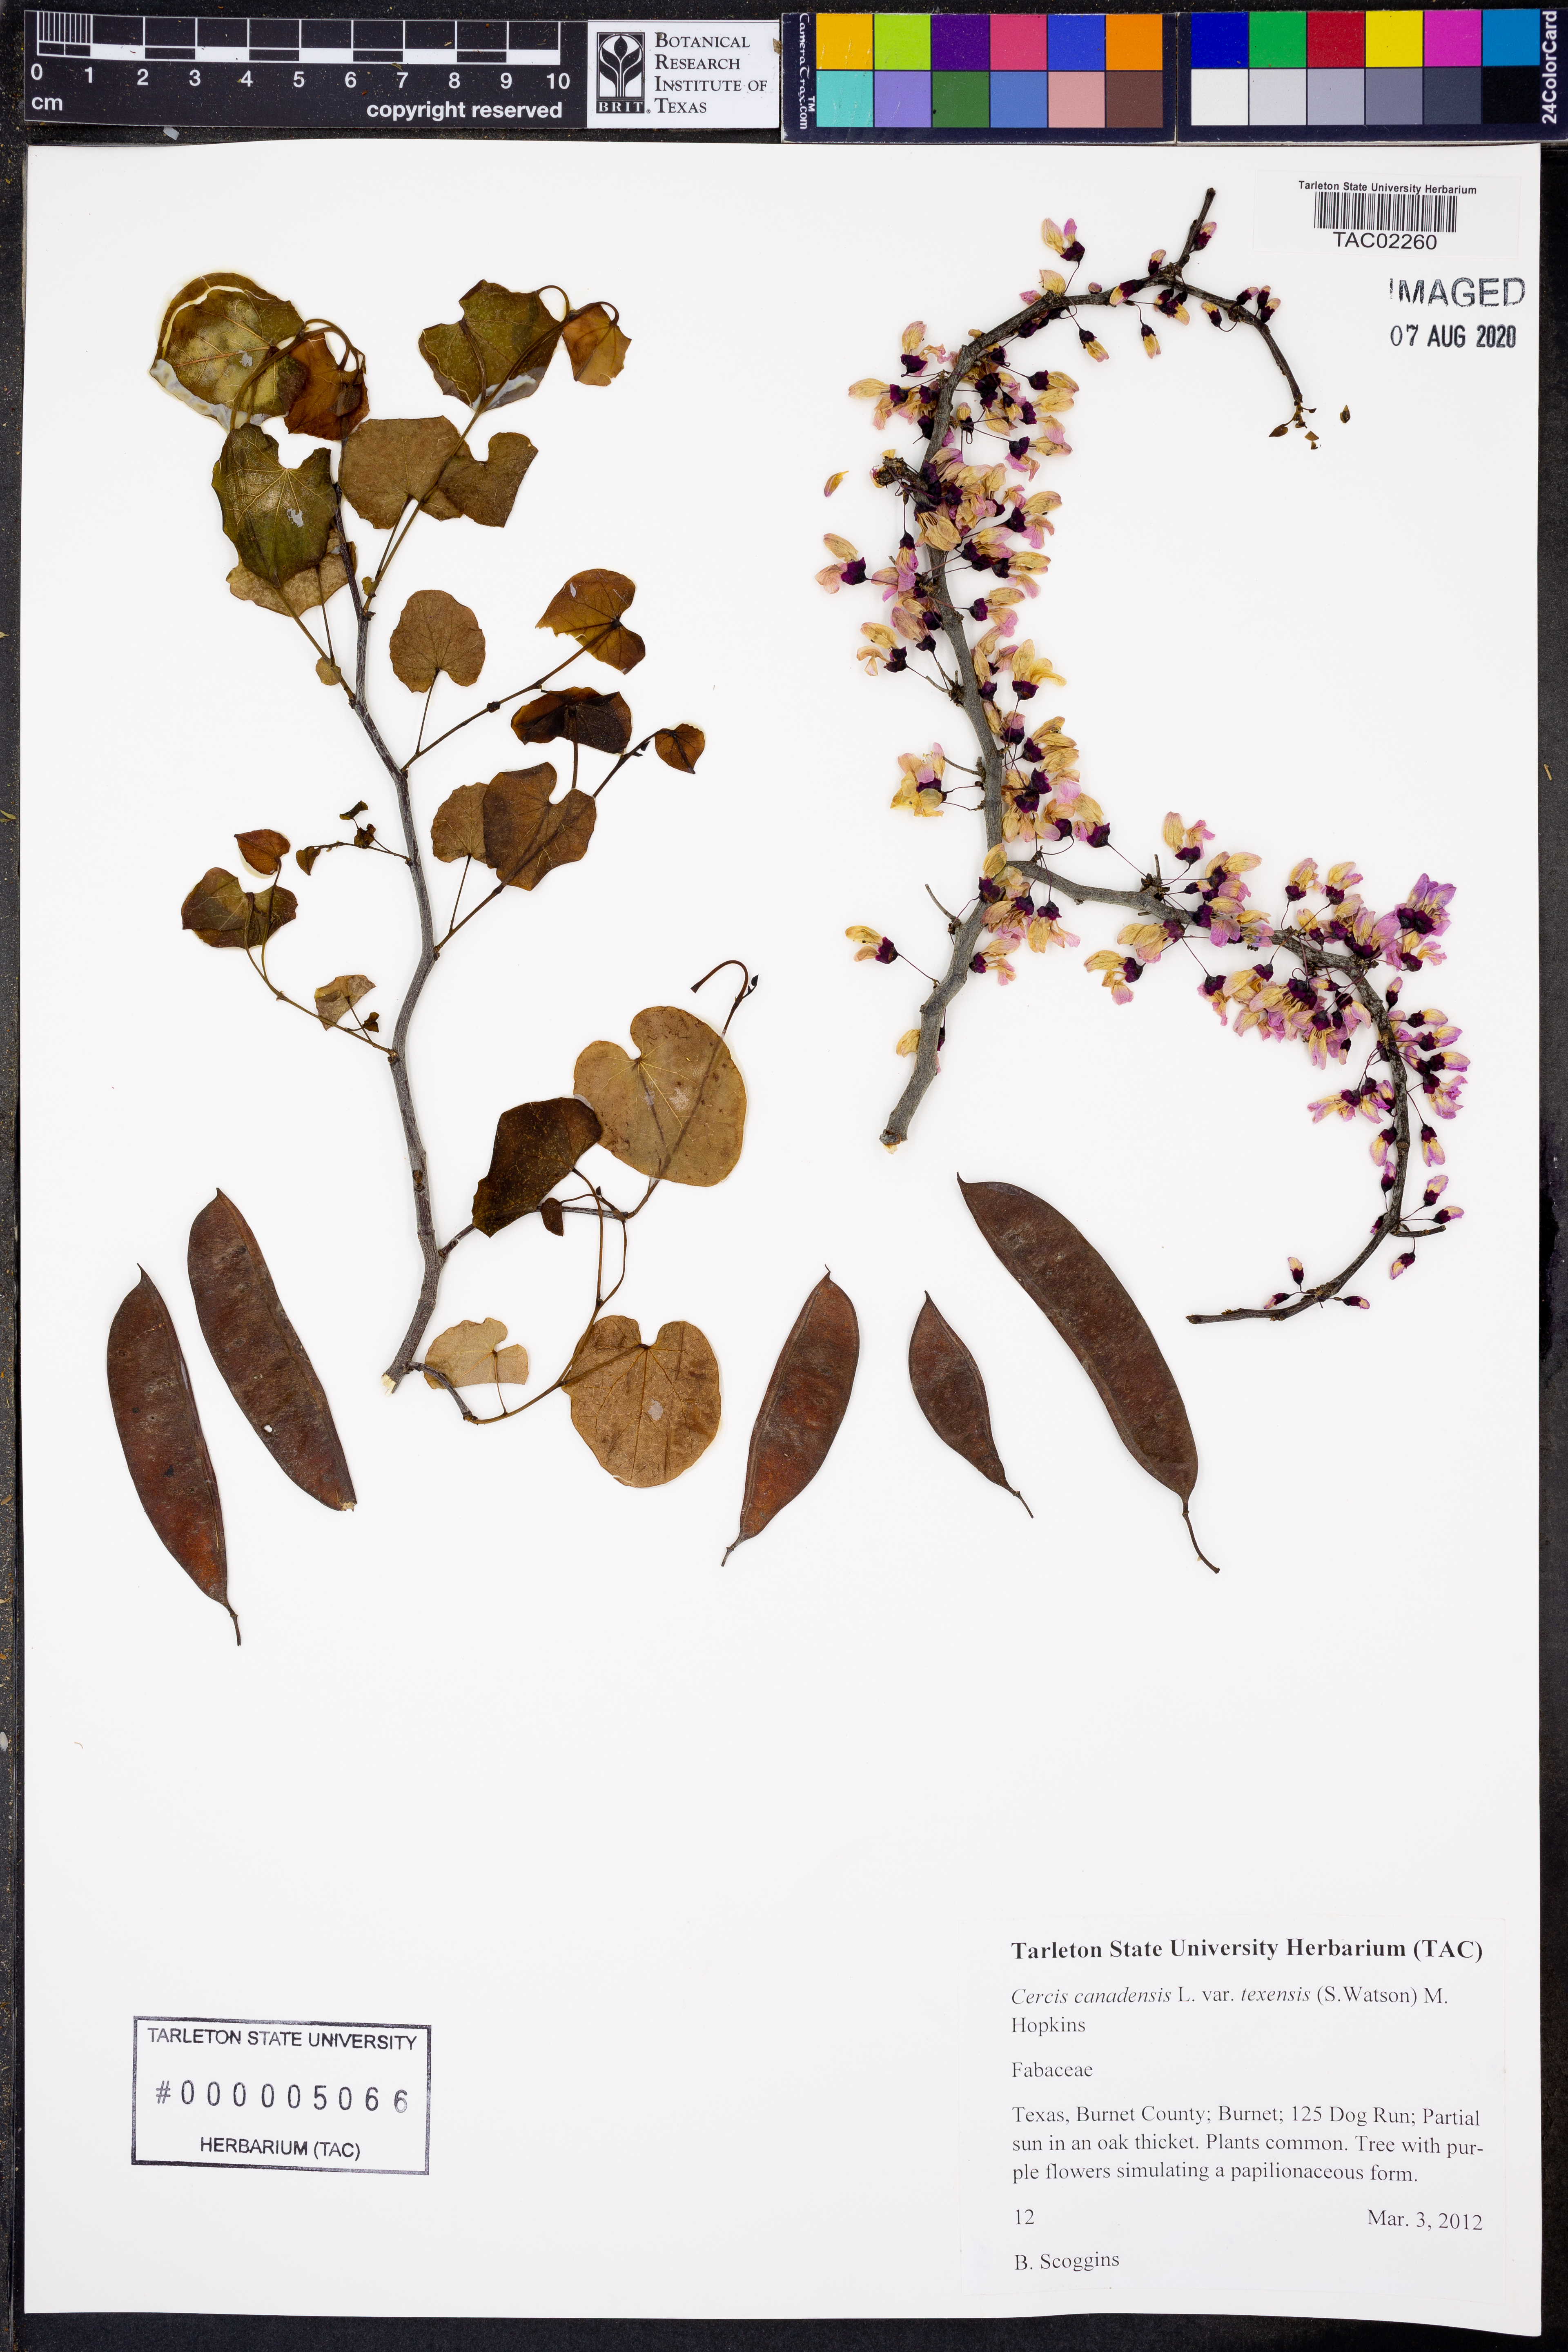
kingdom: Plantae
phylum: Tracheophyta
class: Magnoliopsida
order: Fabales
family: Fabaceae
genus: Cercis
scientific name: Cercis canadensis
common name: Eastern redbud
